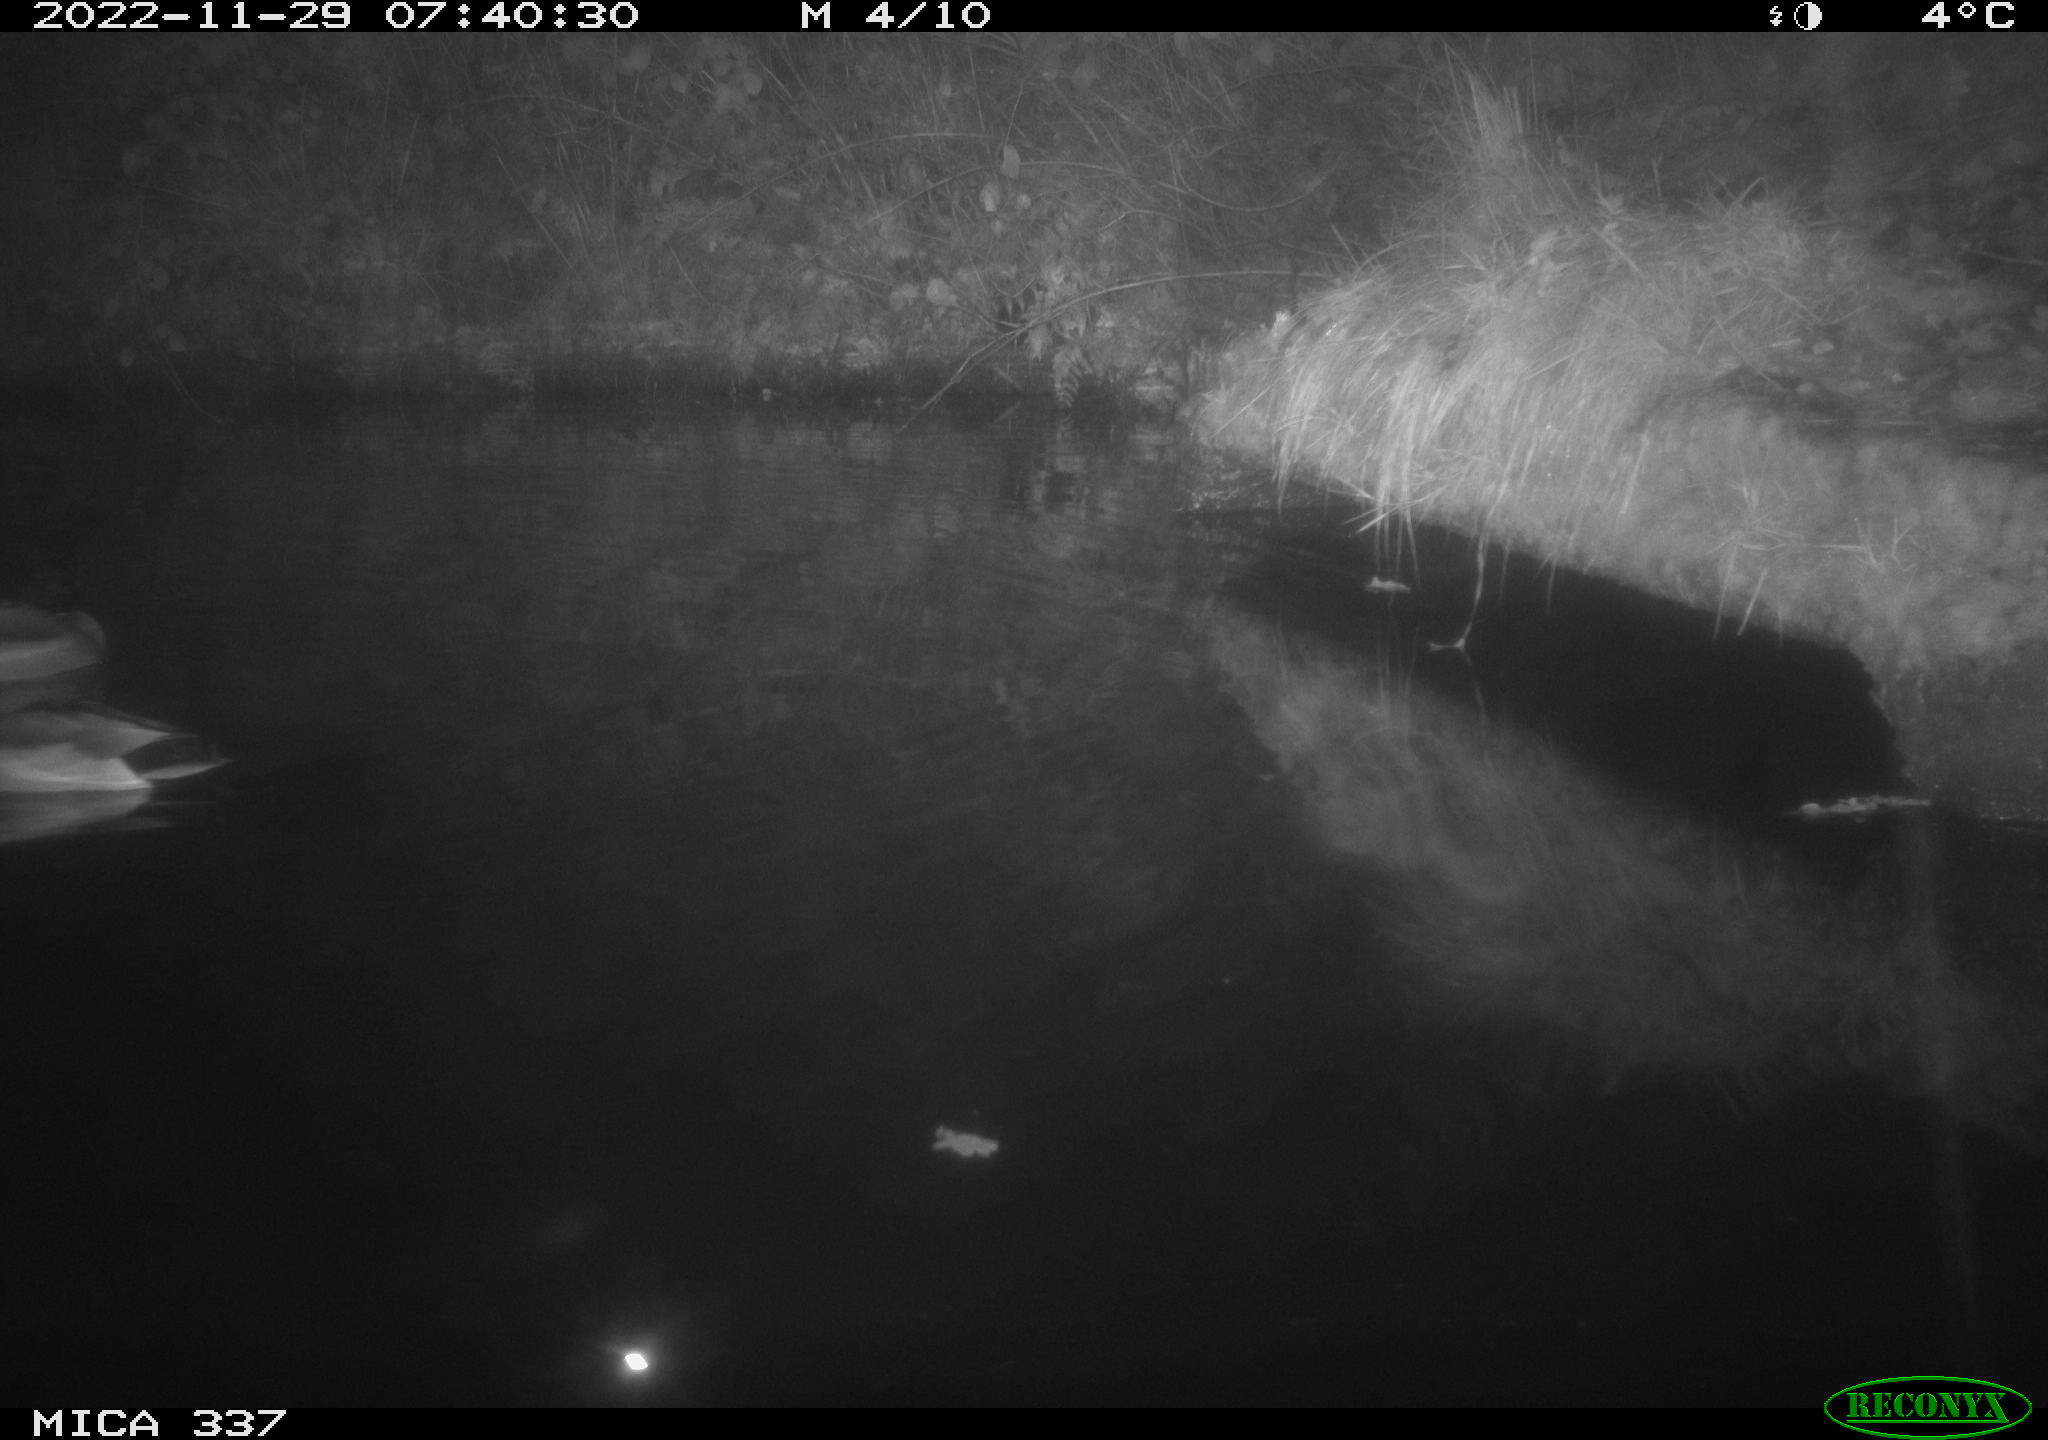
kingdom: Animalia
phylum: Chordata
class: Aves
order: Anseriformes
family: Anatidae
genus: Anas
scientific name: Anas
